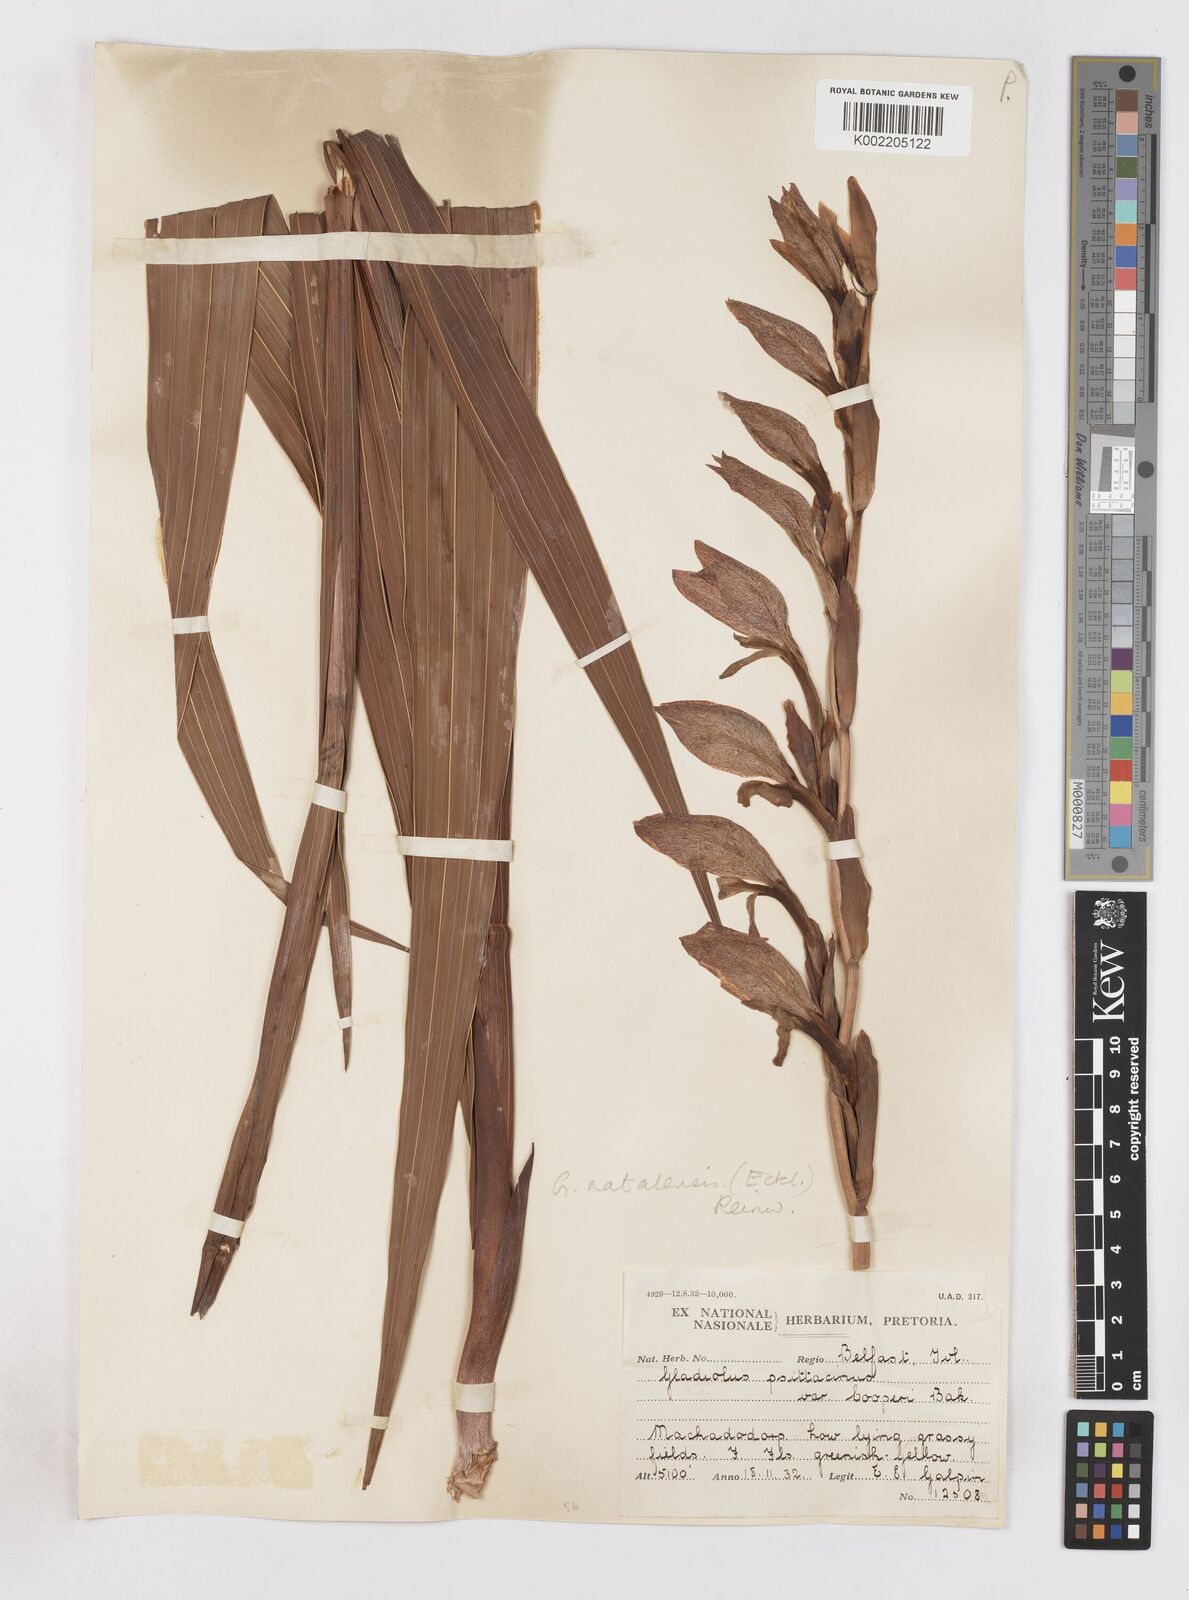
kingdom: Plantae
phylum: Tracheophyta
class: Liliopsida
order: Asparagales
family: Iridaceae
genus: Gladiolus
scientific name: Gladiolus dalenii
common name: Cornflag
